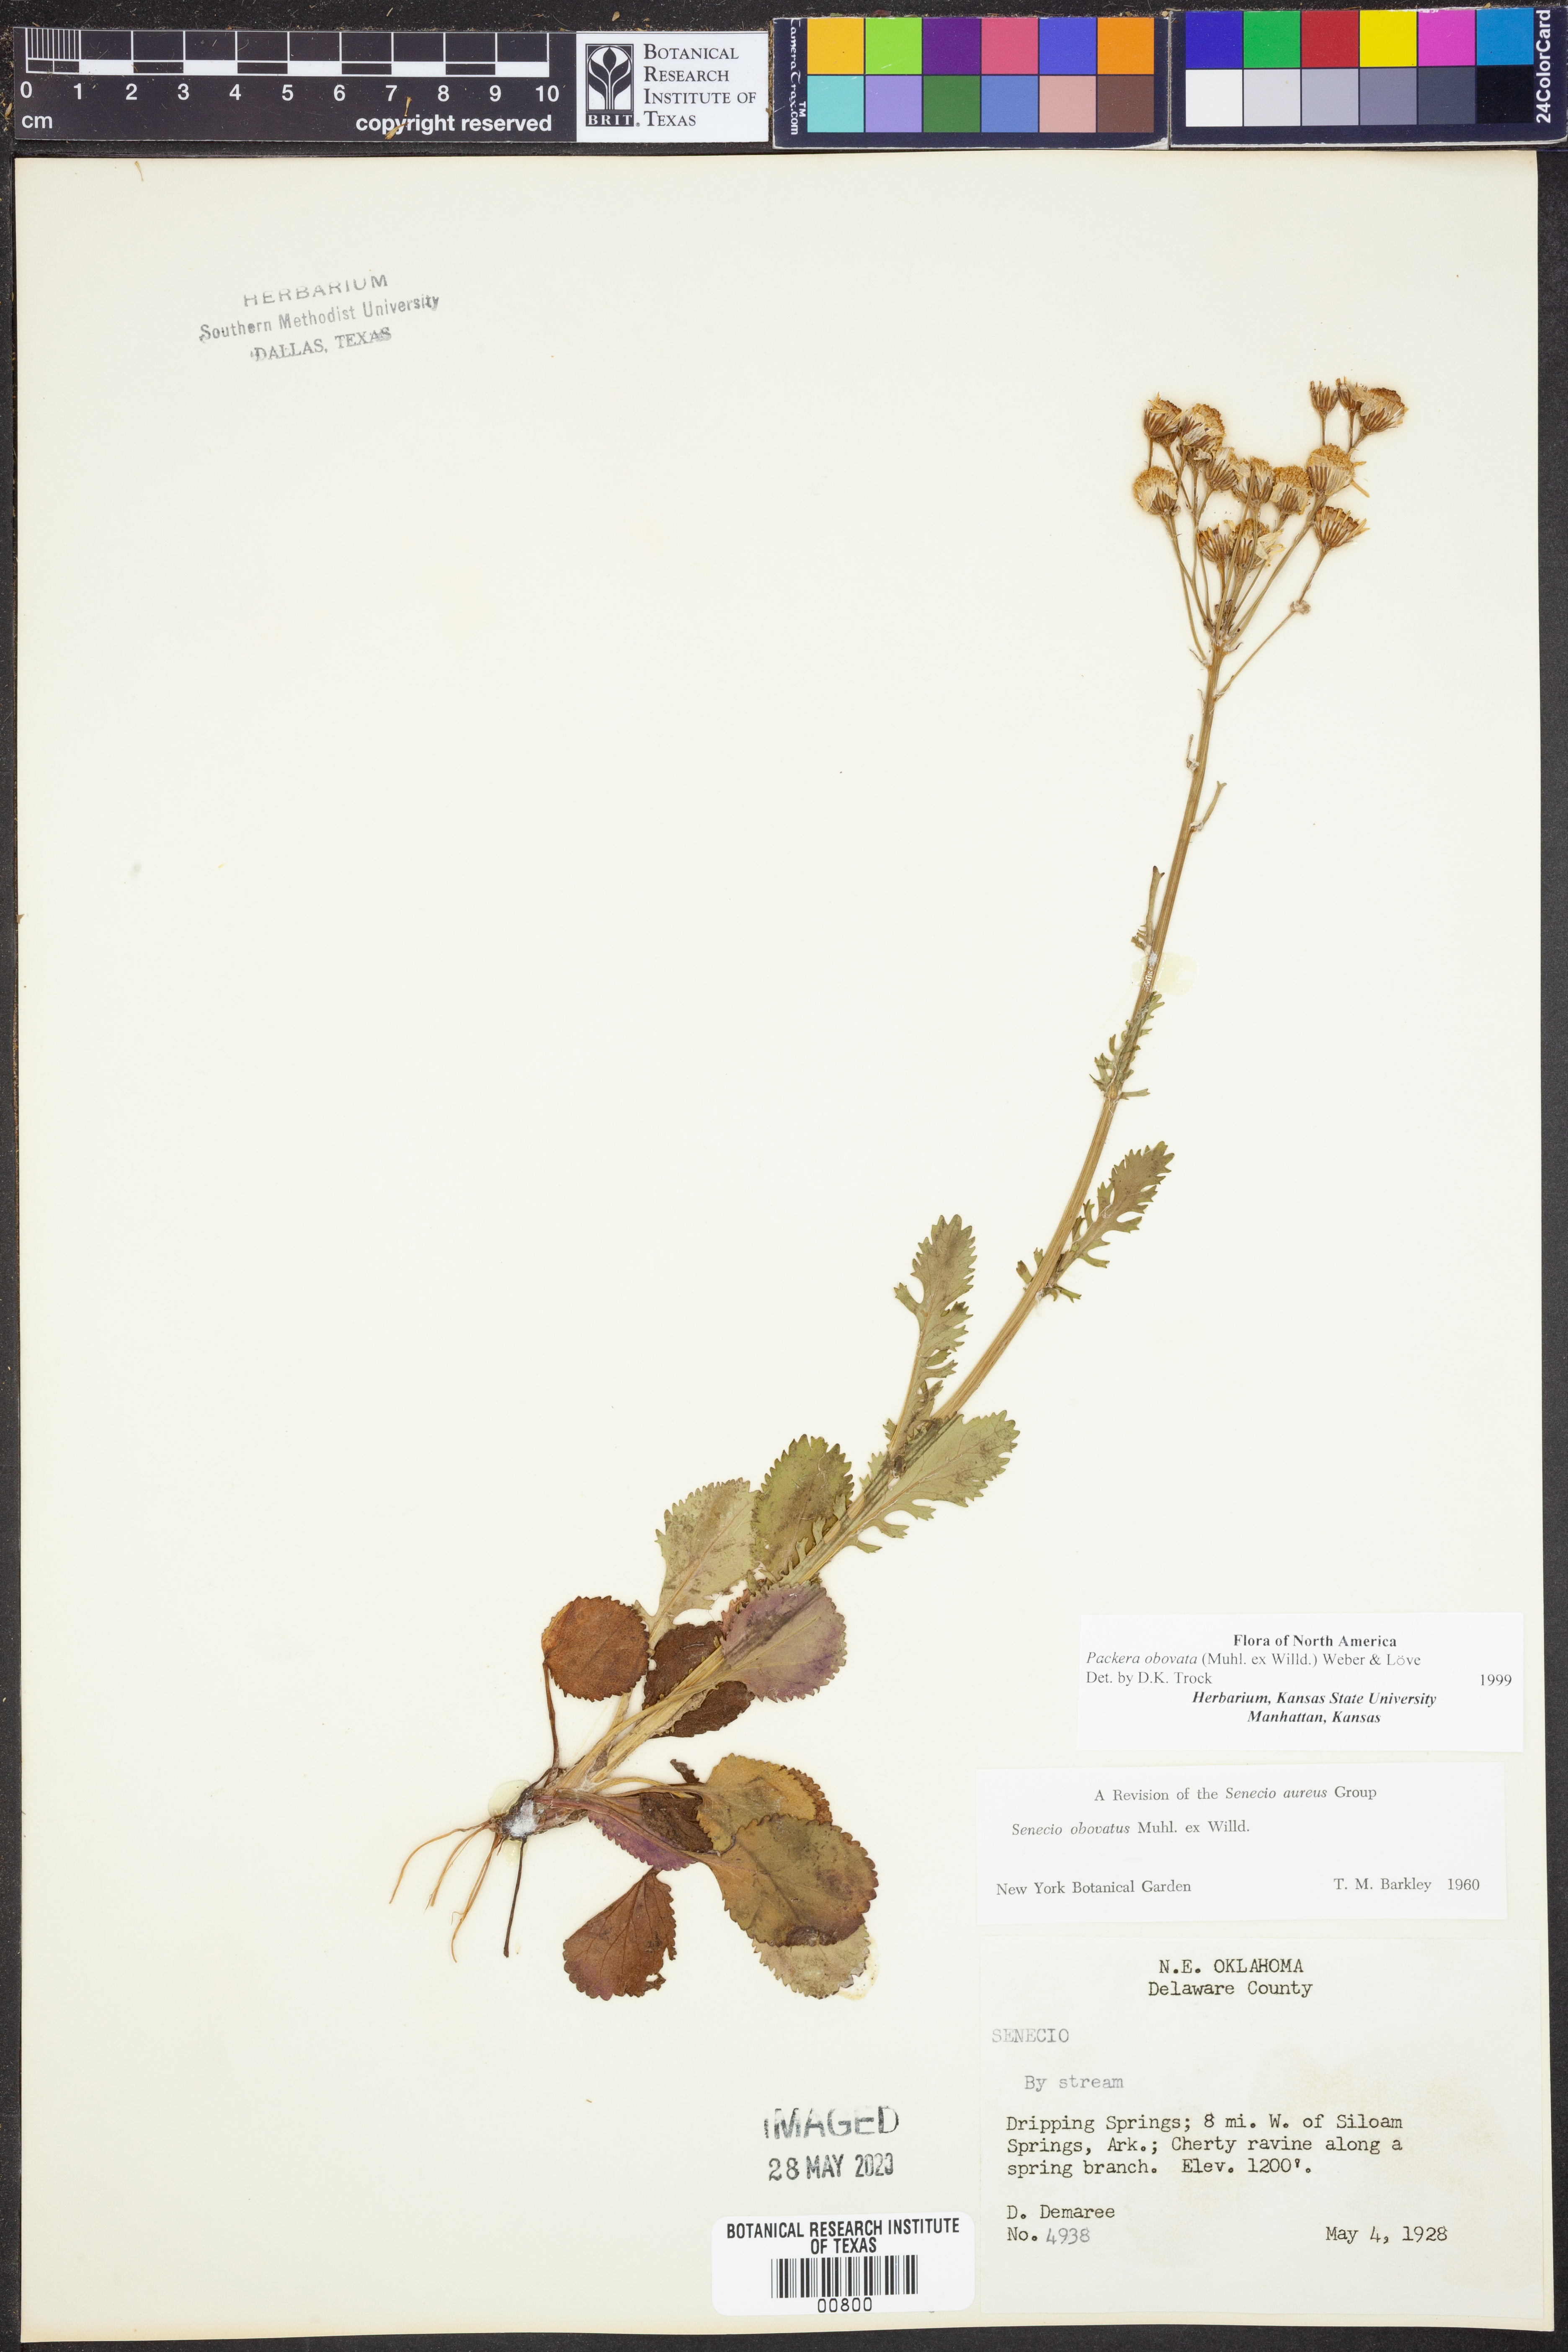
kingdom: Plantae
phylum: Tracheophyta
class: Magnoliopsida
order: Asterales
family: Asteraceae
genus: Packera
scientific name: Packera obovata
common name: Round-leaf ragwort
